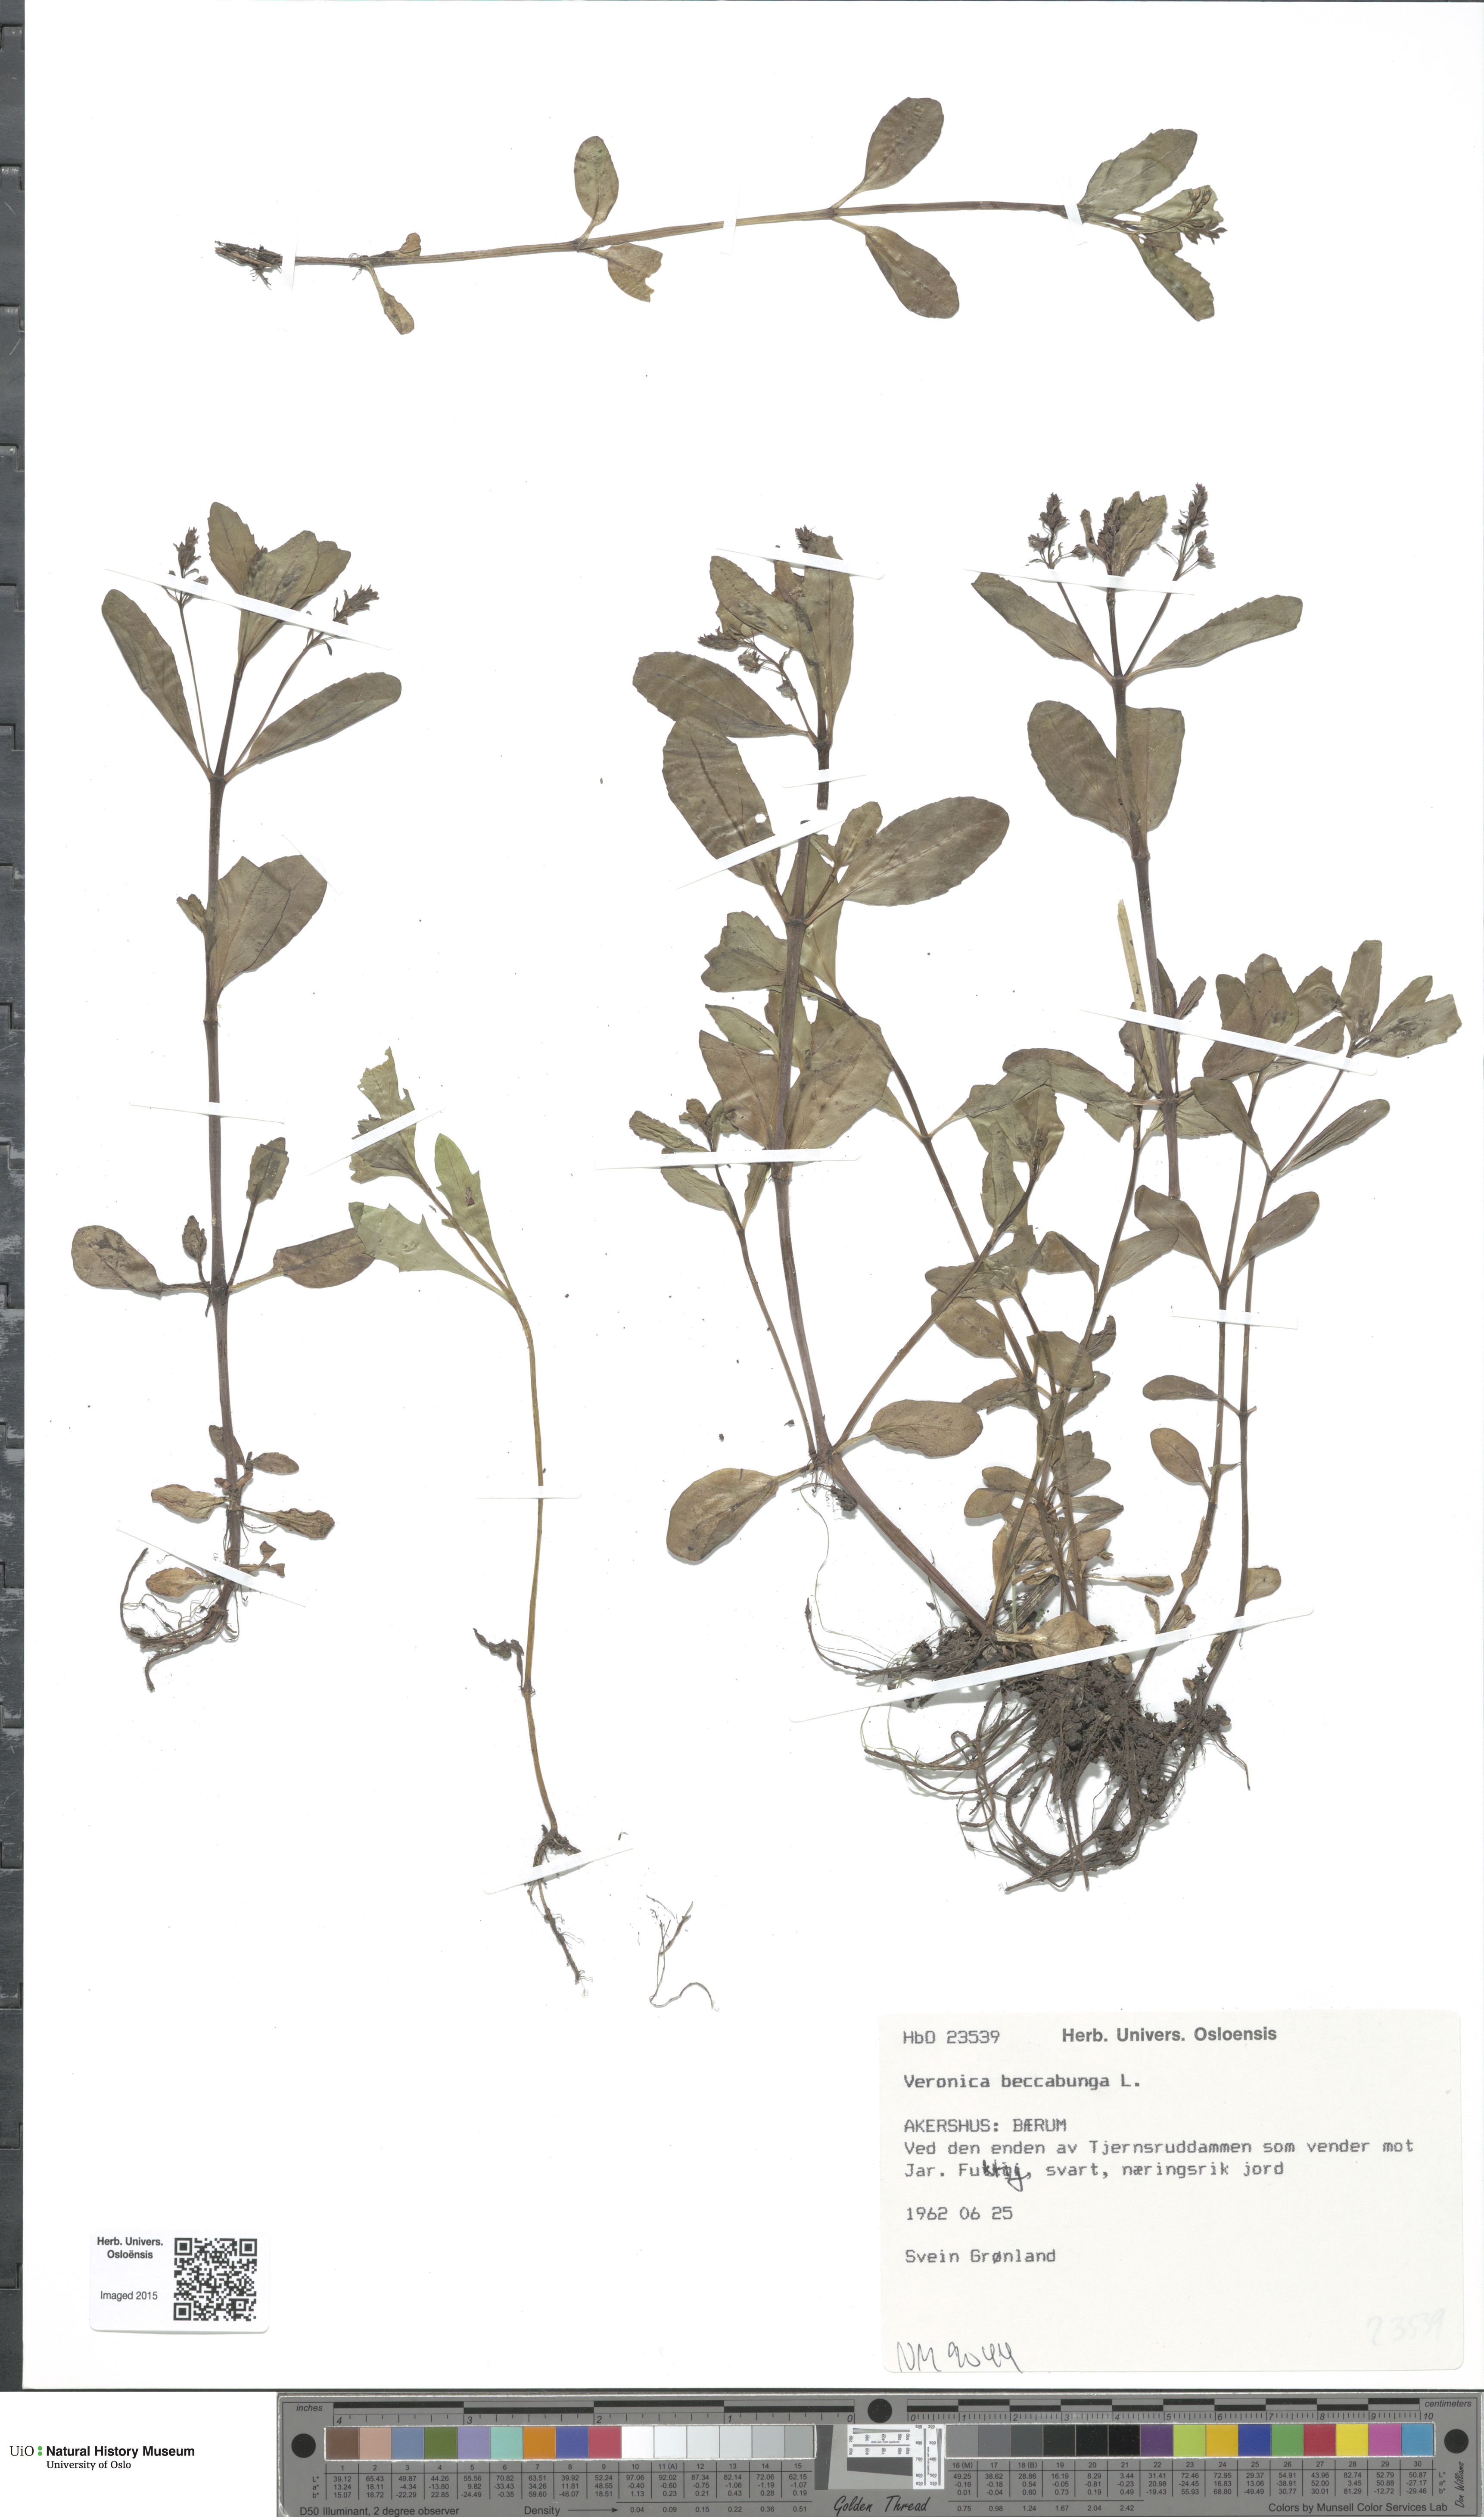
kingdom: Plantae
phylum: Tracheophyta
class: Magnoliopsida
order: Lamiales
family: Plantaginaceae
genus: Veronica
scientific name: Veronica beccabunga
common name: Brooklime
